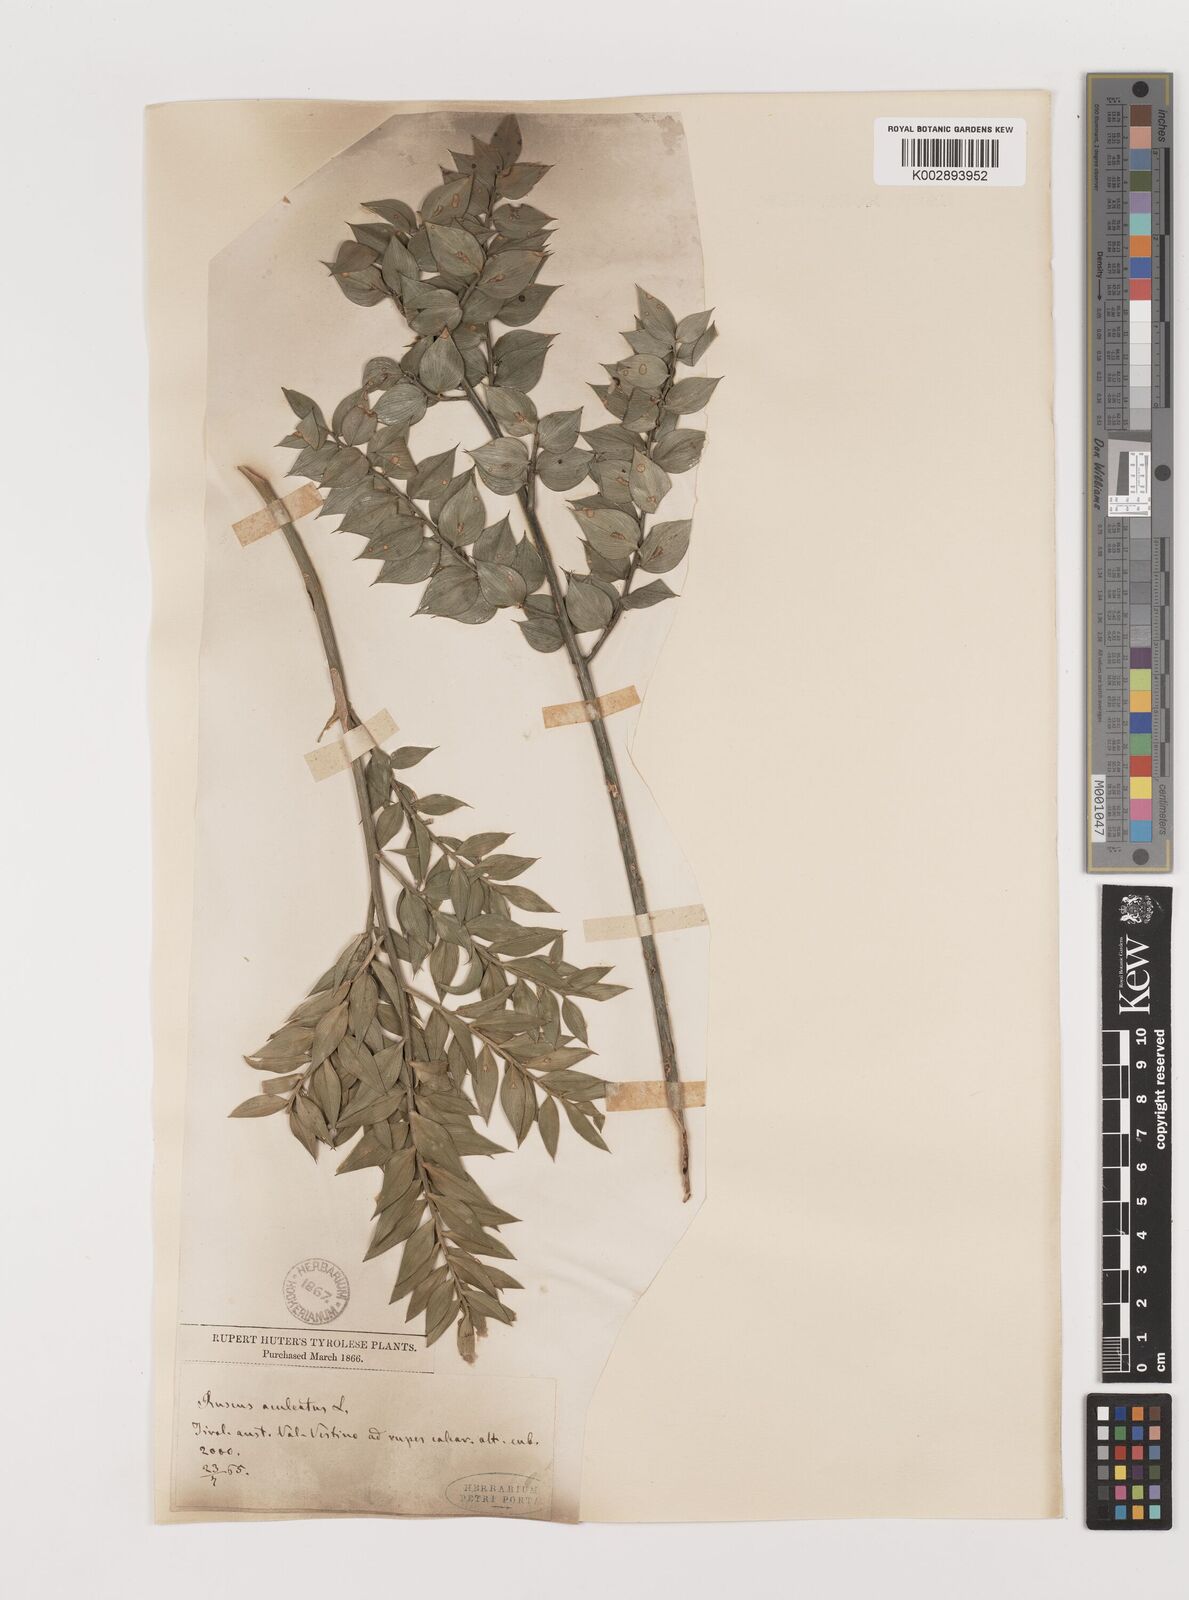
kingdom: Plantae
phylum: Tracheophyta
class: Liliopsida
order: Asparagales
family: Asparagaceae
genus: Ruscus
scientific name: Ruscus aculeatus
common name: Butcher's-broom
